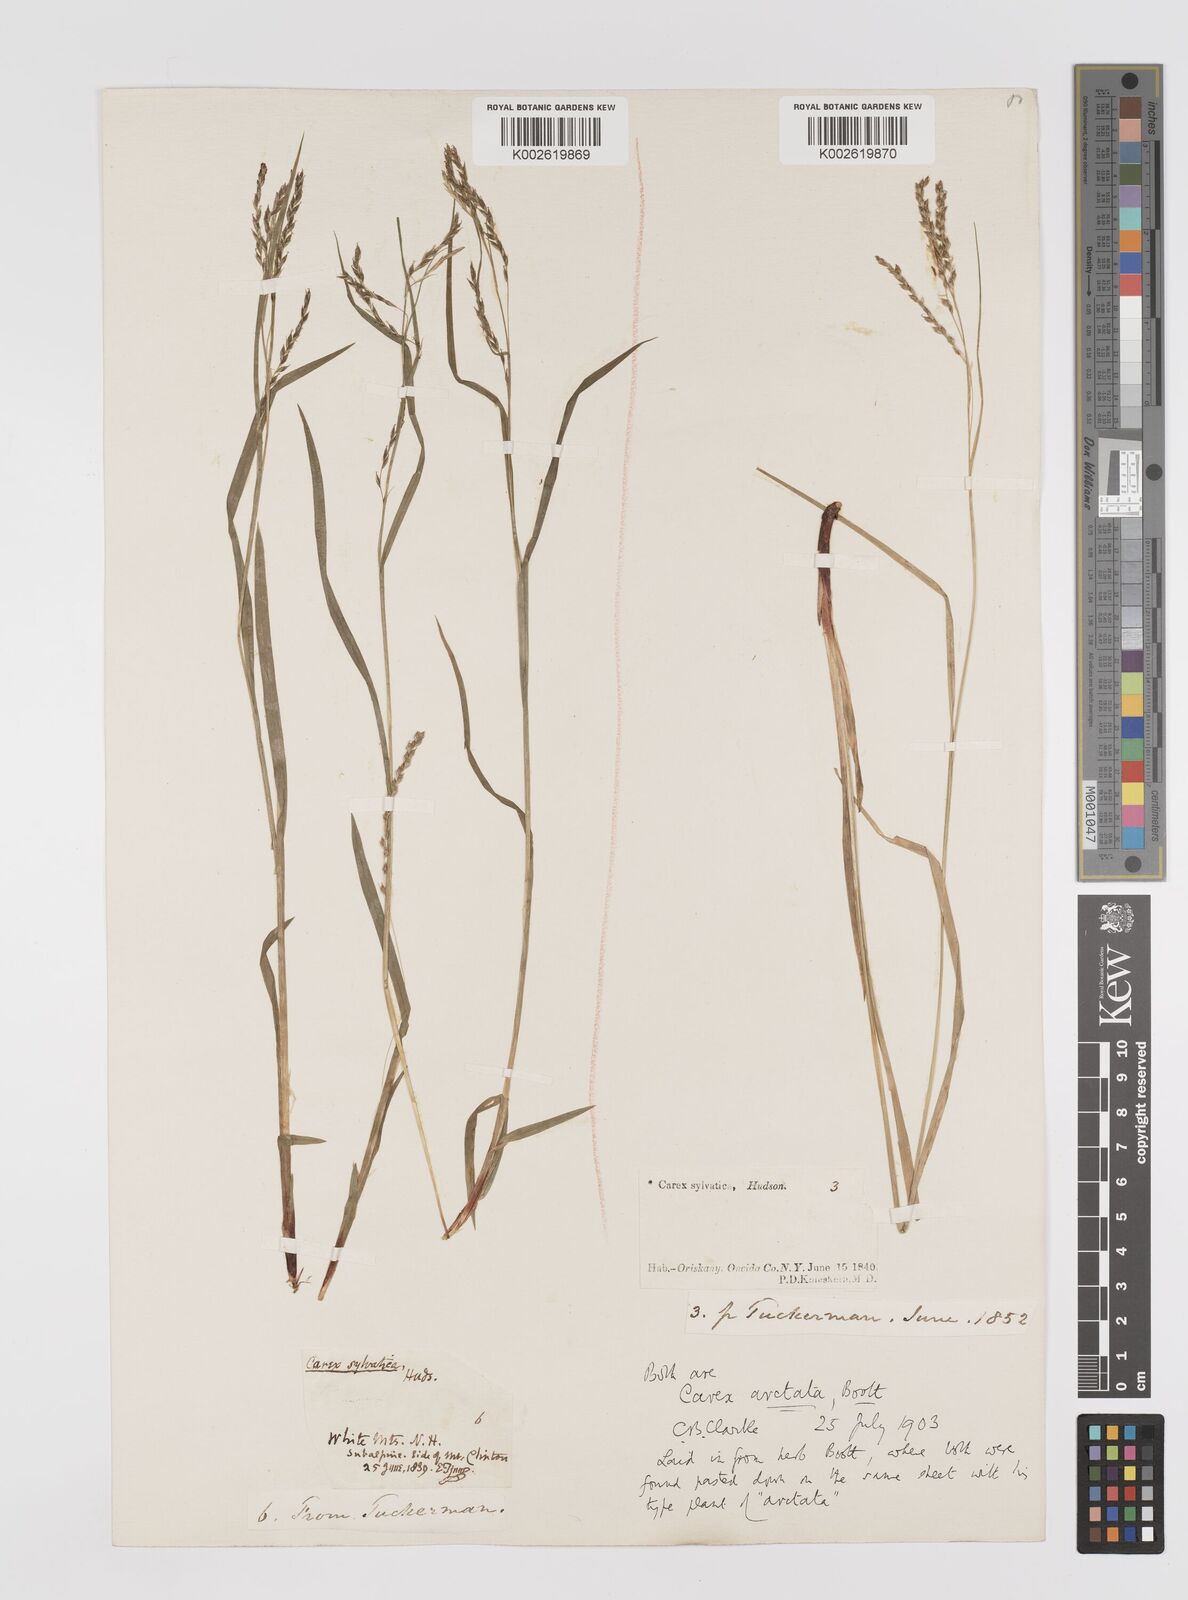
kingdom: Plantae
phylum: Tracheophyta
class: Liliopsida
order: Poales
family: Cyperaceae
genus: Carex
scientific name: Carex arctata
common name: Black sedge
